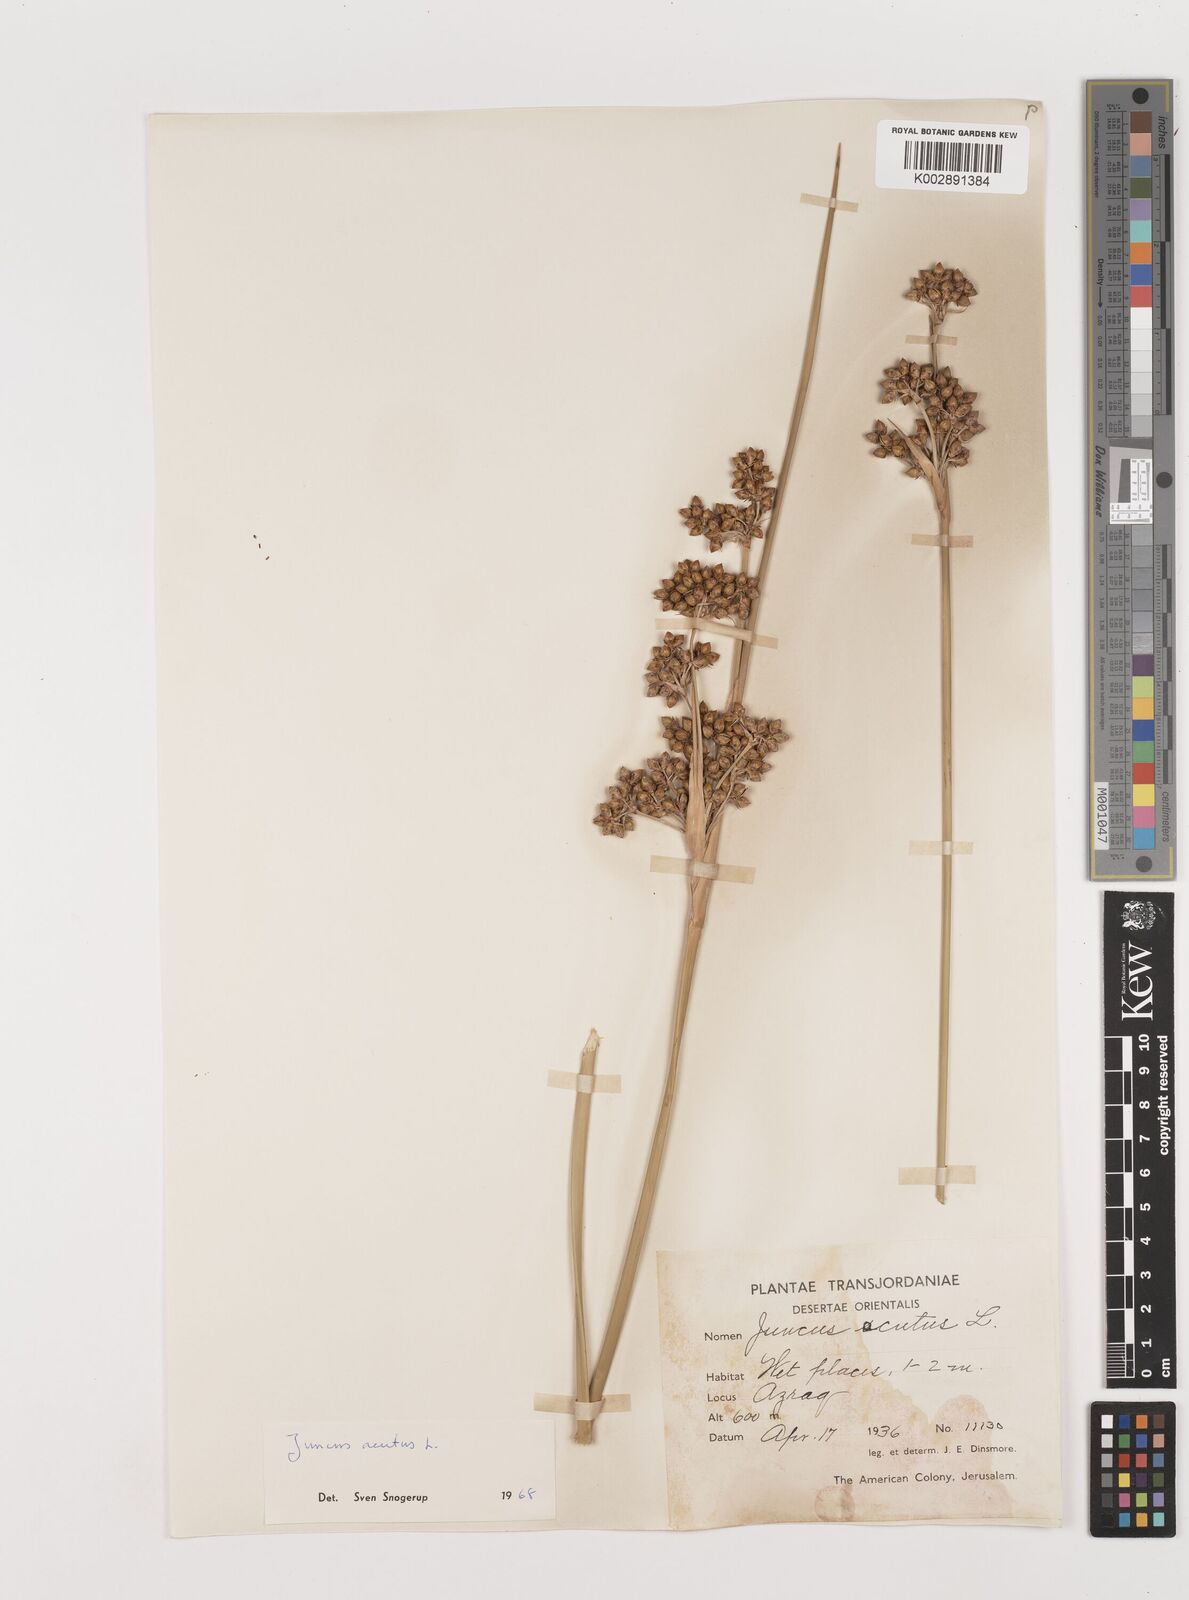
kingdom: Plantae
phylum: Tracheophyta
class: Liliopsida
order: Poales
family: Juncaceae
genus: Juncus
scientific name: Juncus acutus
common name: Sharp rush
